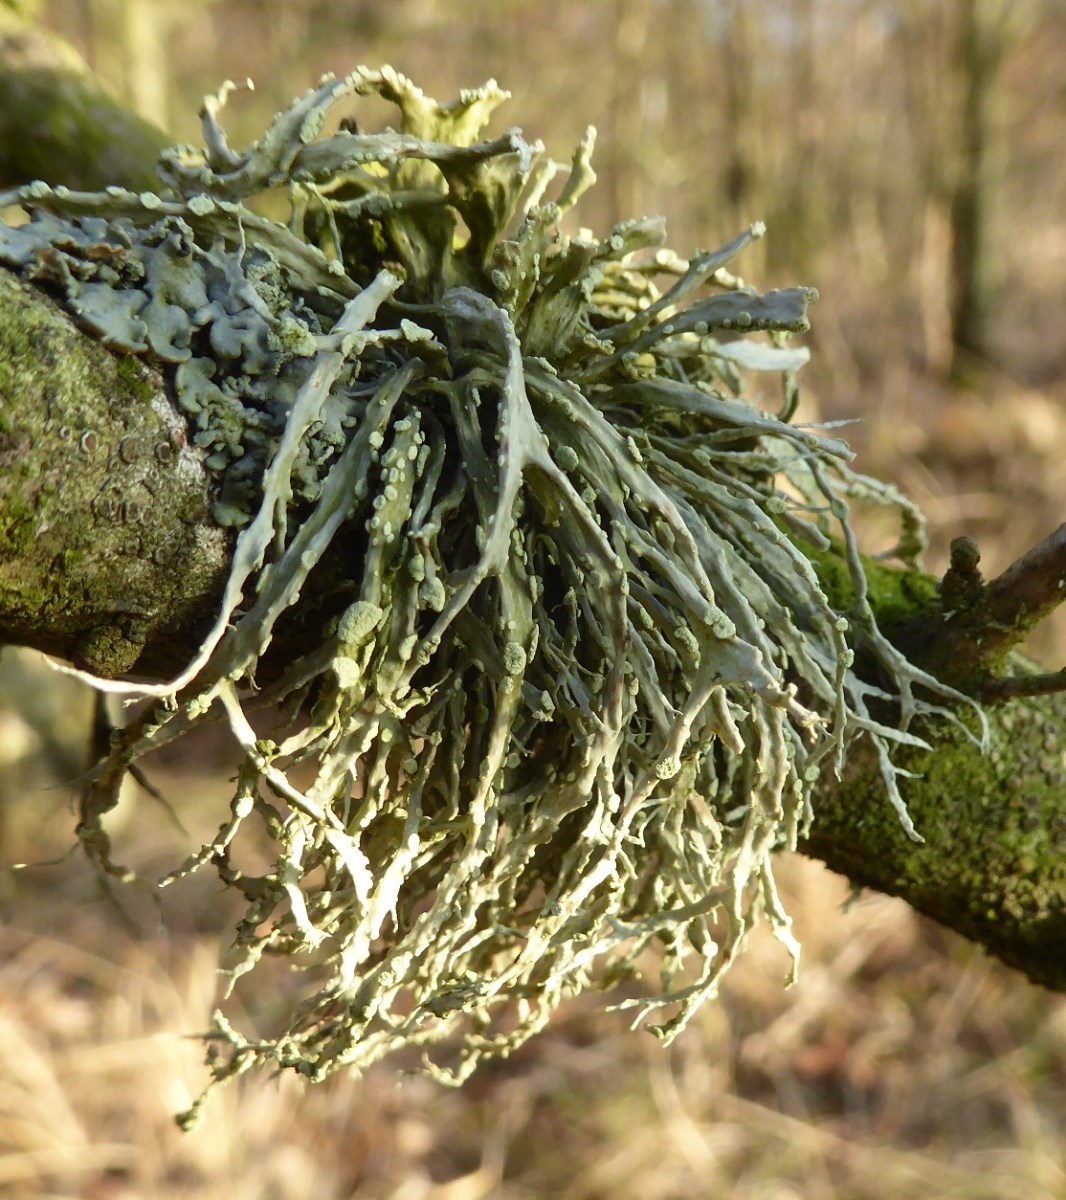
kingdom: Fungi
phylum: Ascomycota
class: Lecanoromycetes
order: Lecanorales
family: Ramalinaceae
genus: Ramalina
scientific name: Ramalina farinacea
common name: melet grenlav
